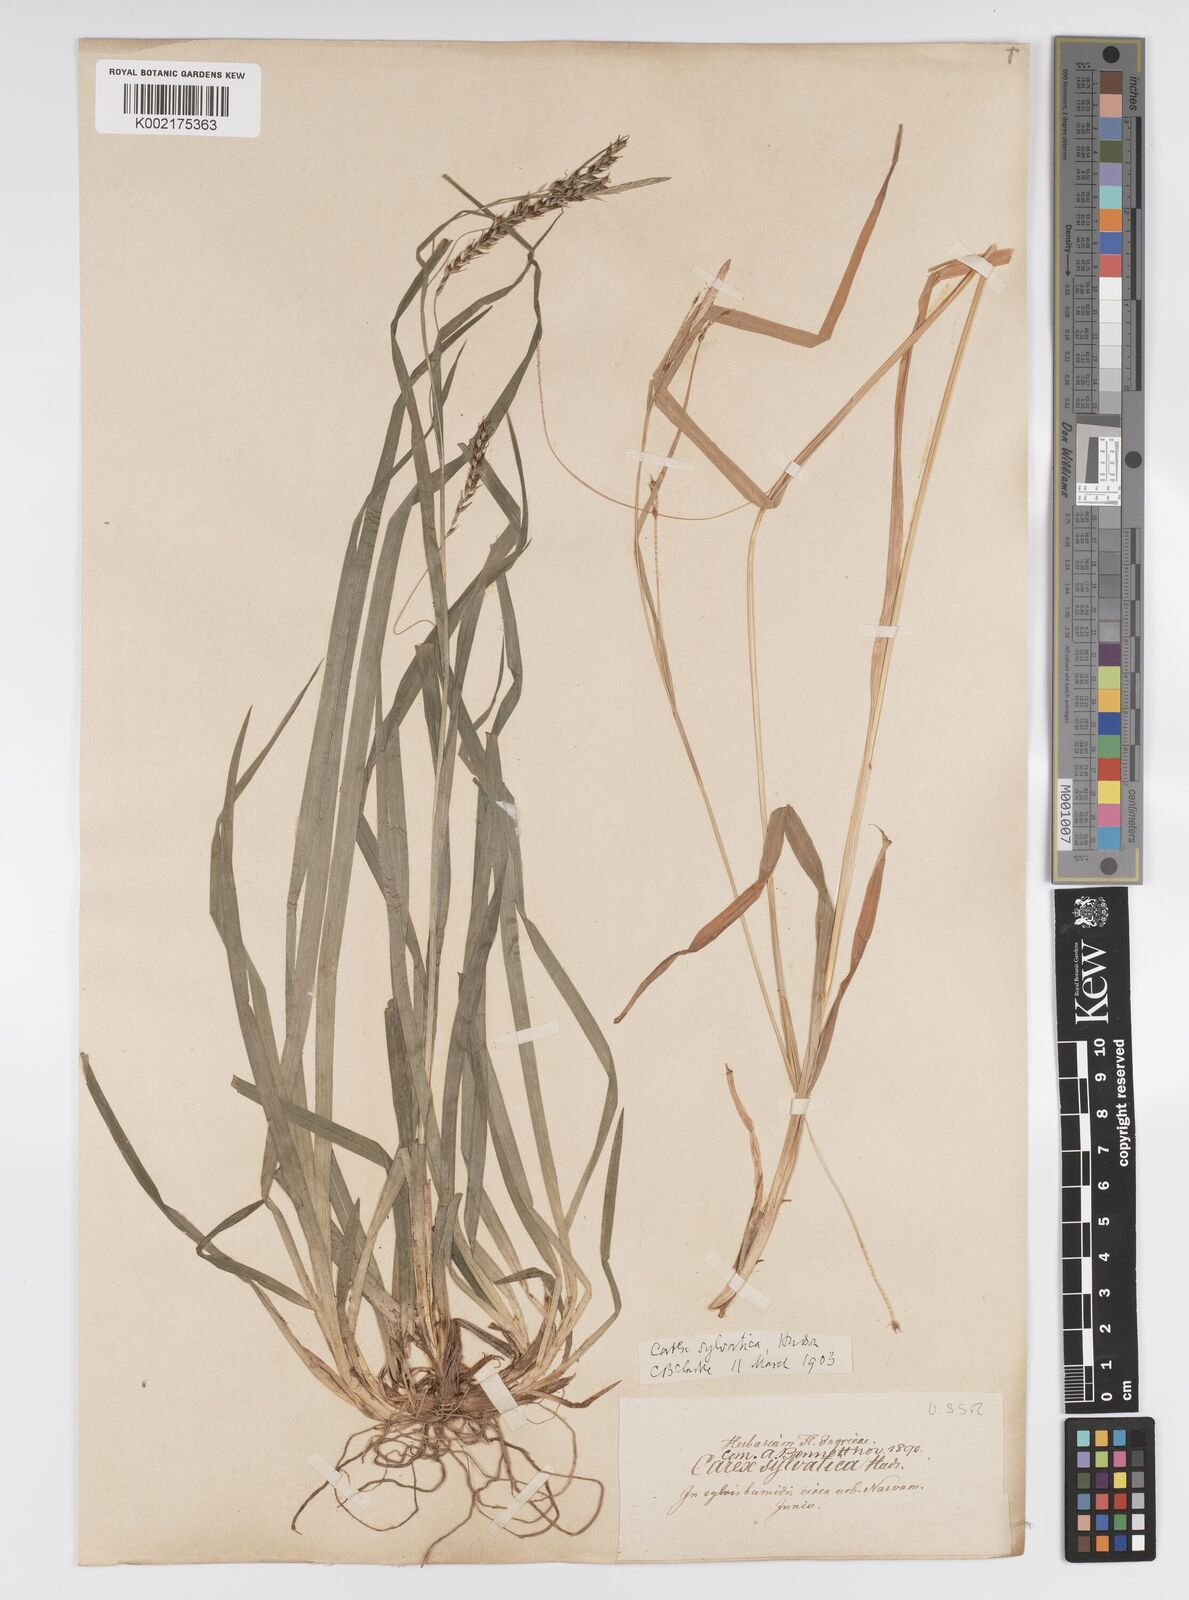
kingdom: Plantae
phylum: Tracheophyta
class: Liliopsida
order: Poales
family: Cyperaceae
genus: Carex
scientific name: Carex sylvatica
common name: Wood-sedge
